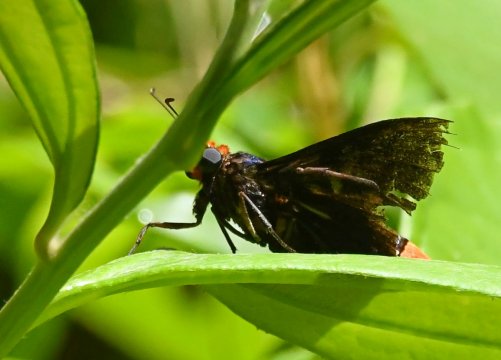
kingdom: Animalia
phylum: Arthropoda
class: Insecta
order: Lepidoptera
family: Hesperiidae
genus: Pyrrhopyge
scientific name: Pyrrhopyge phidias
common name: Red-headed Firetip
